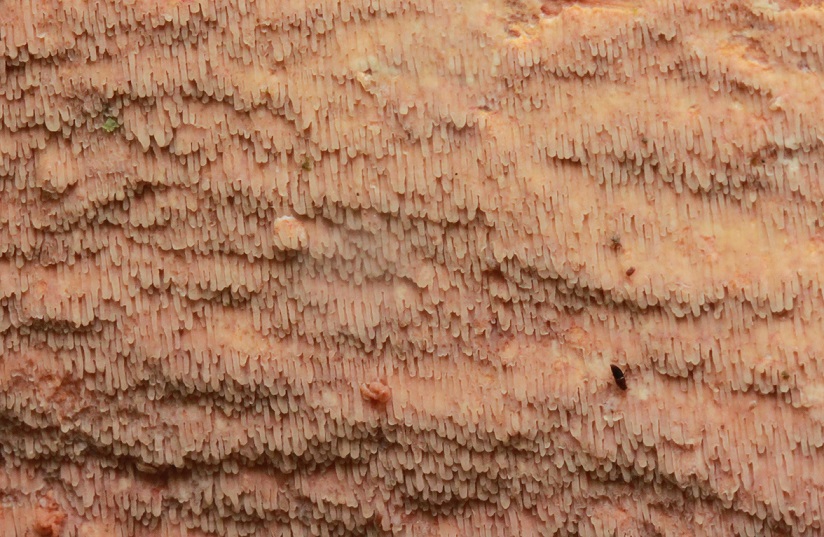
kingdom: Fungi
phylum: Basidiomycota
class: Agaricomycetes
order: Polyporales
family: Meruliaceae
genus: Phlebia
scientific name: Phlebia rufa
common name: ege-åresvamp
